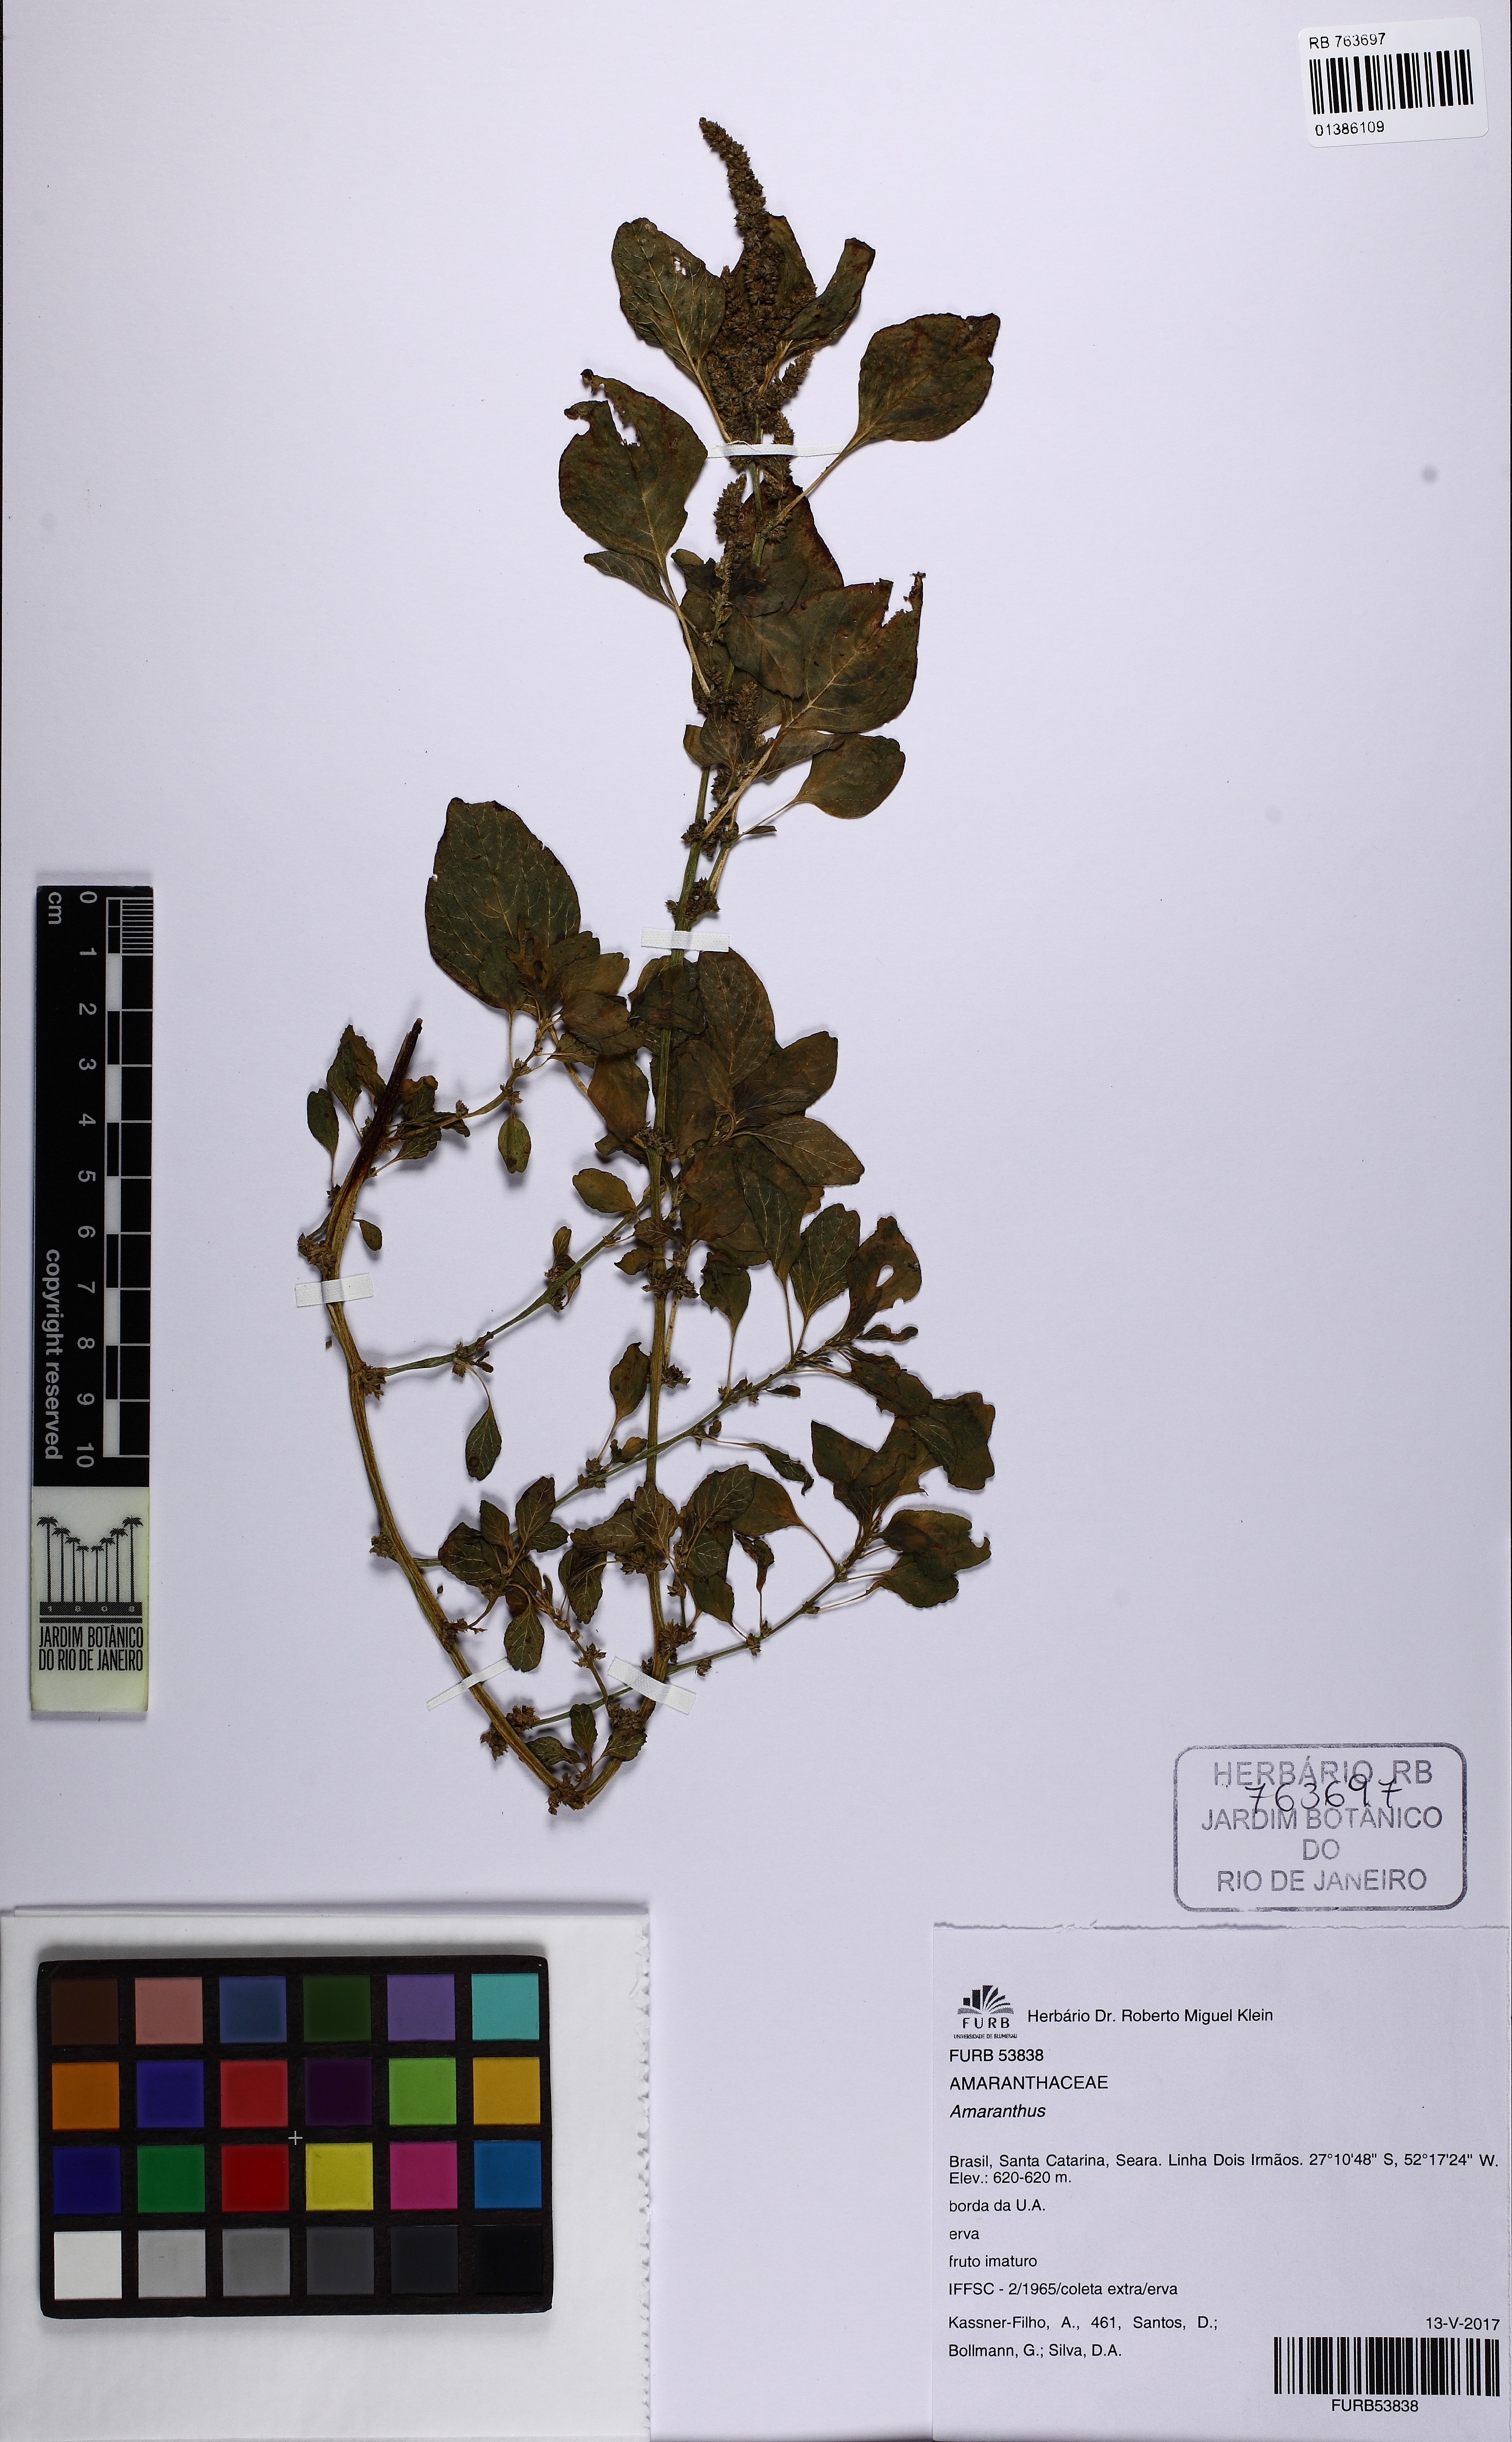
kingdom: Plantae
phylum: Tracheophyta
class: Magnoliopsida
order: Caryophyllales
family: Amaranthaceae
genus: Amaranthus
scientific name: Amaranthus
